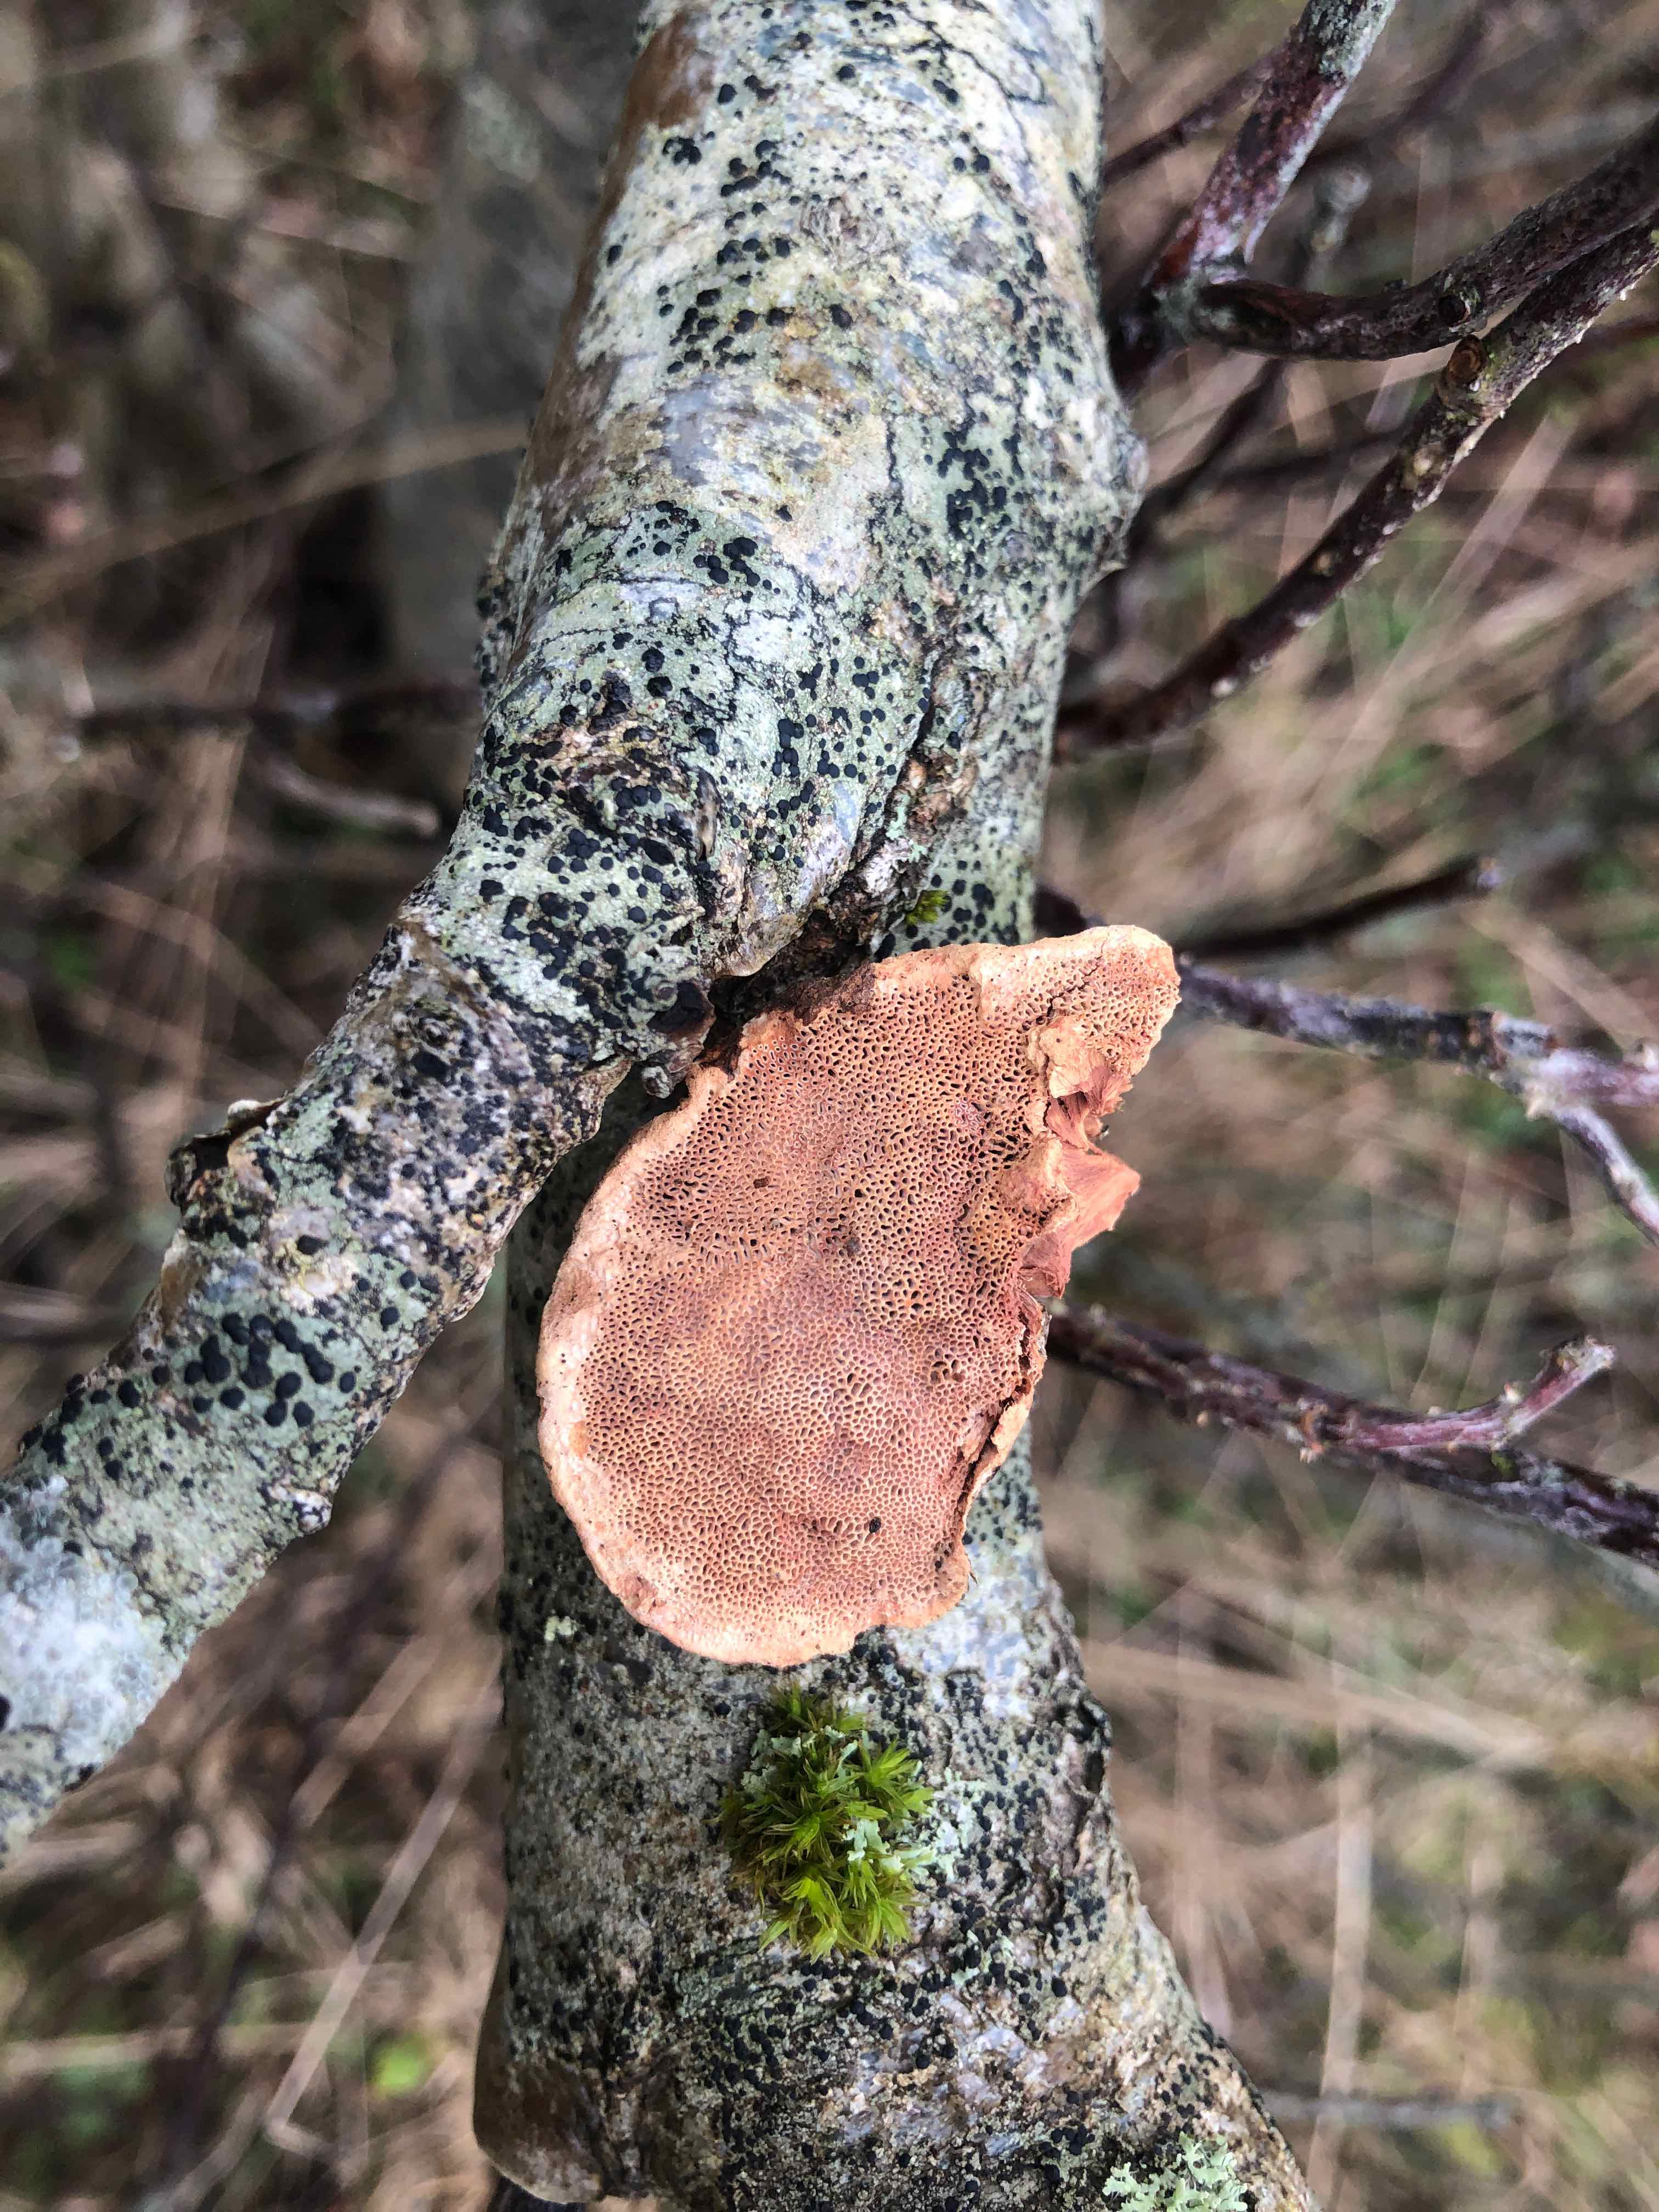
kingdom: Fungi
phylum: Basidiomycota
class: Agaricomycetes
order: Polyporales
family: Phanerochaetaceae
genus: Hapalopilus
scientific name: Hapalopilus rutilans
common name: rødlig okkerporesvamp
